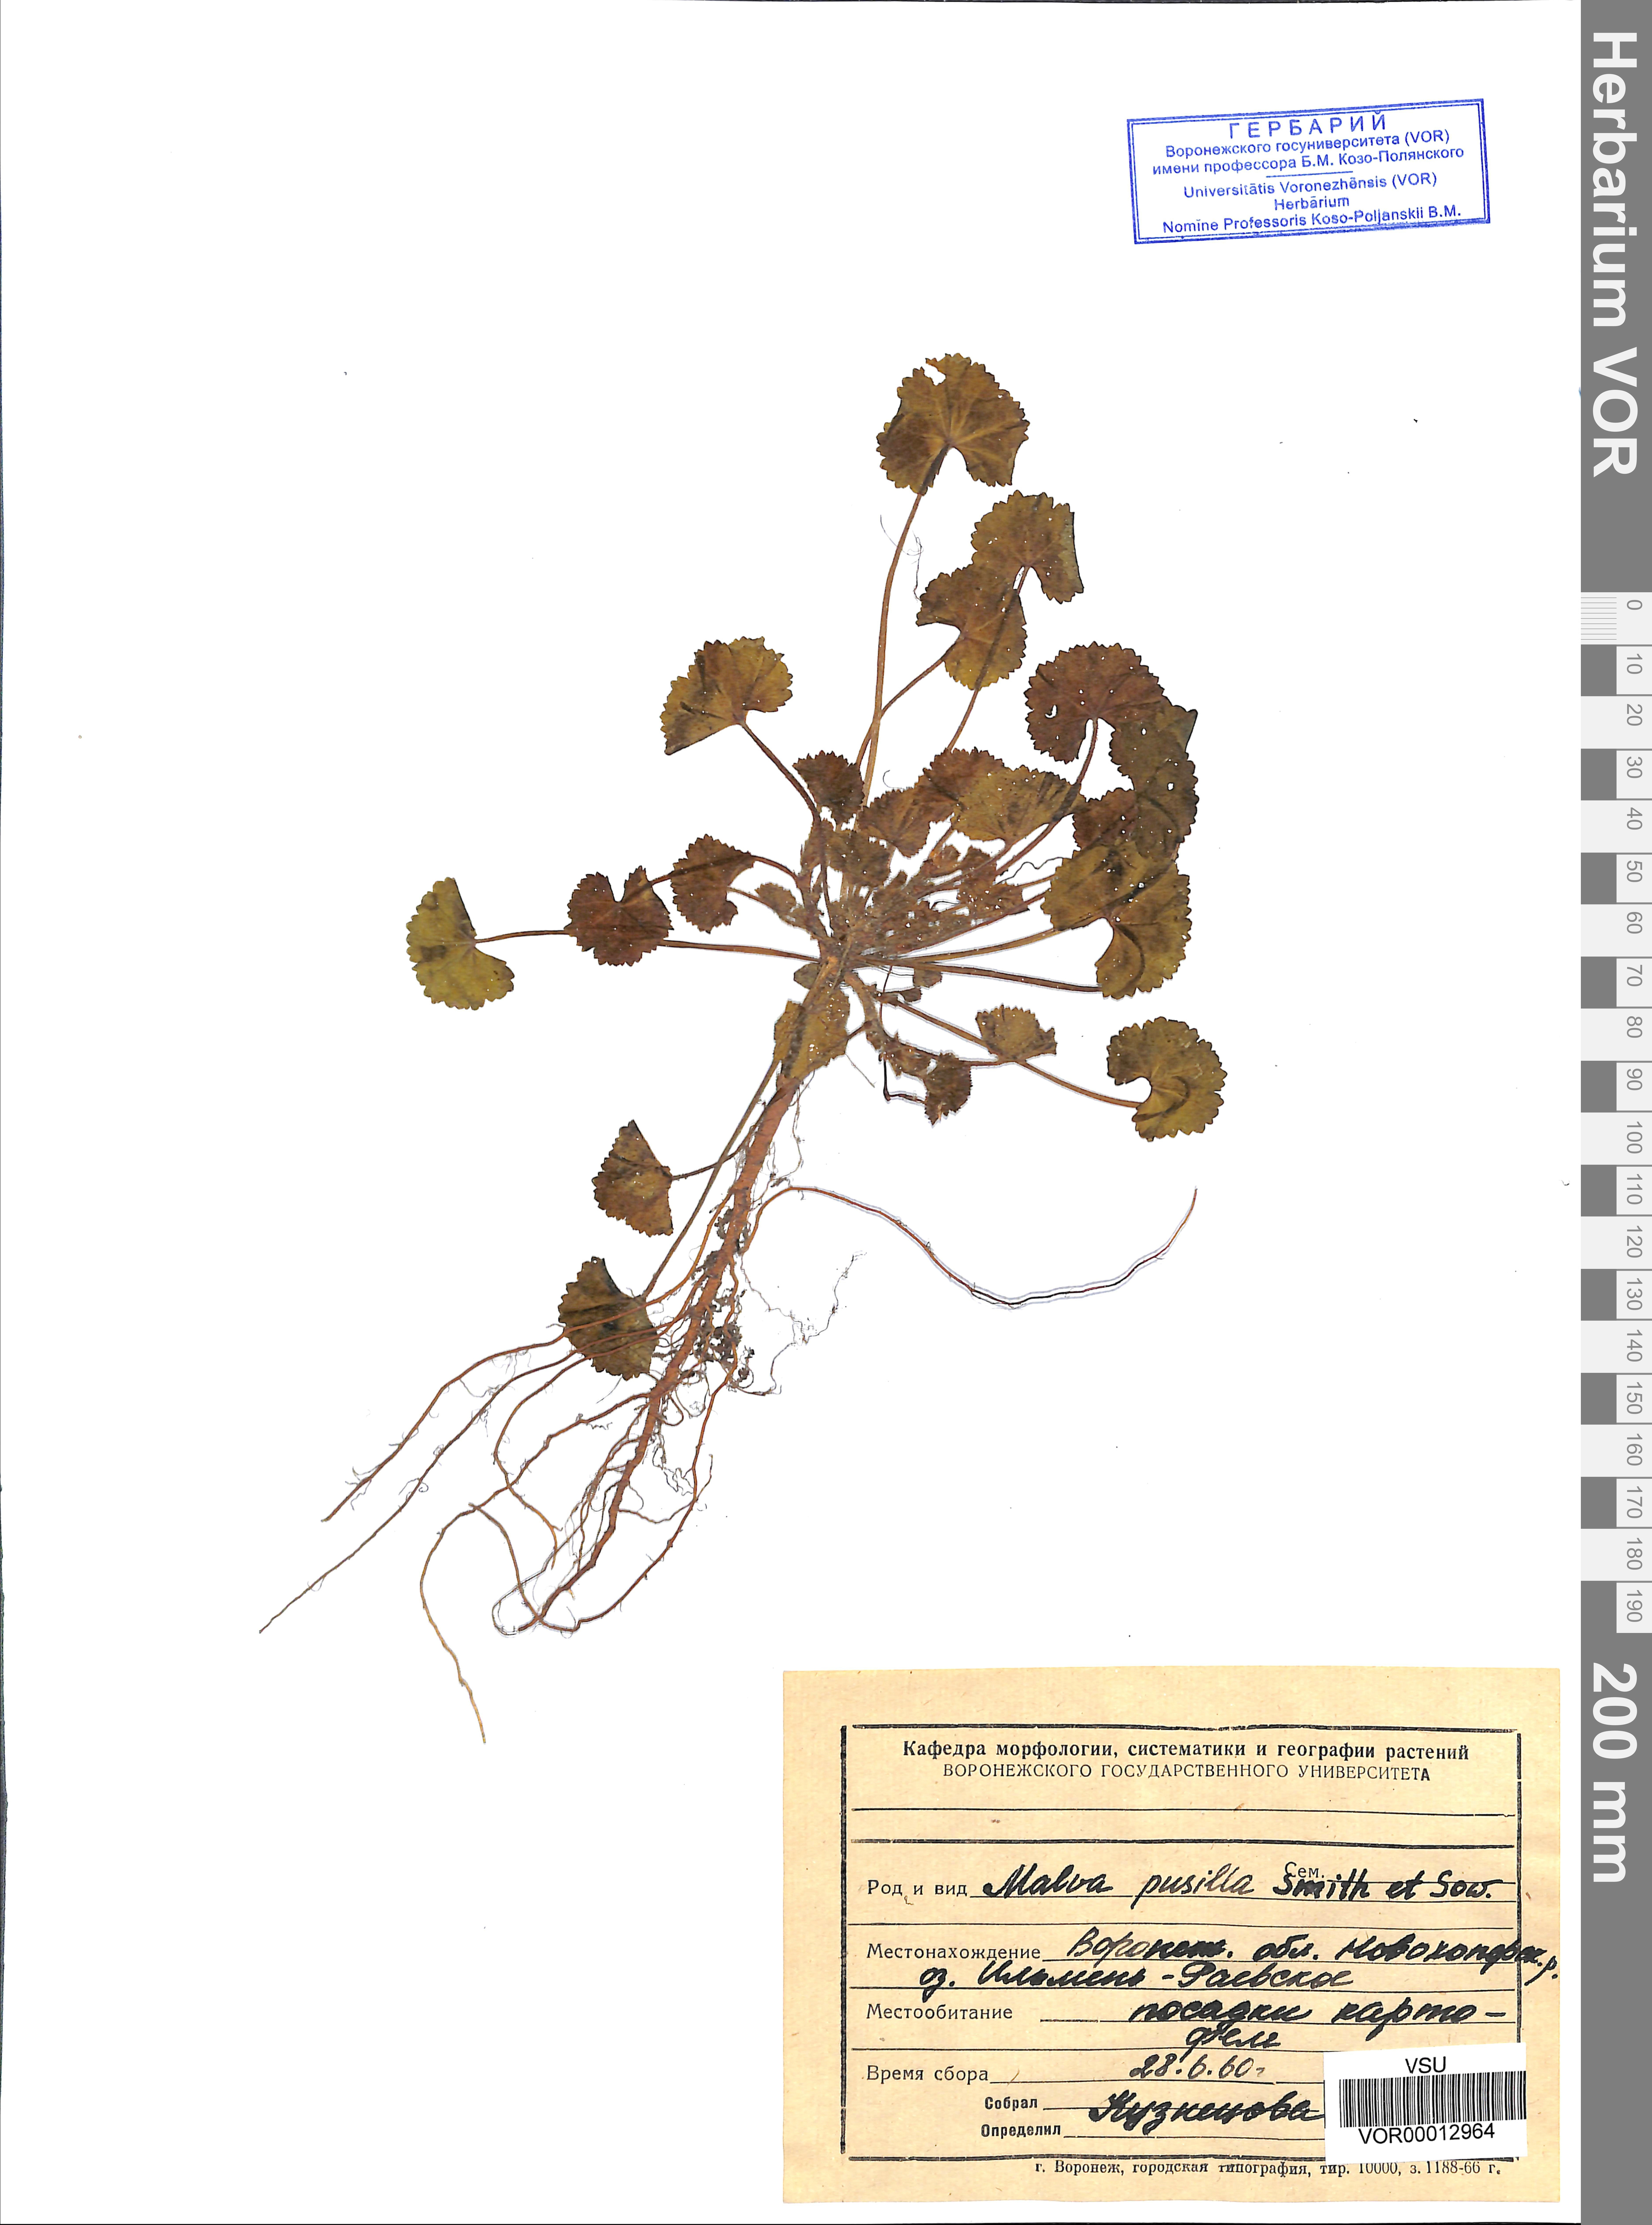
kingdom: Plantae
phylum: Tracheophyta
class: Magnoliopsida
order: Malvales
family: Malvaceae
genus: Malva
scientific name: Malva pusilla
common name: Small mallow
